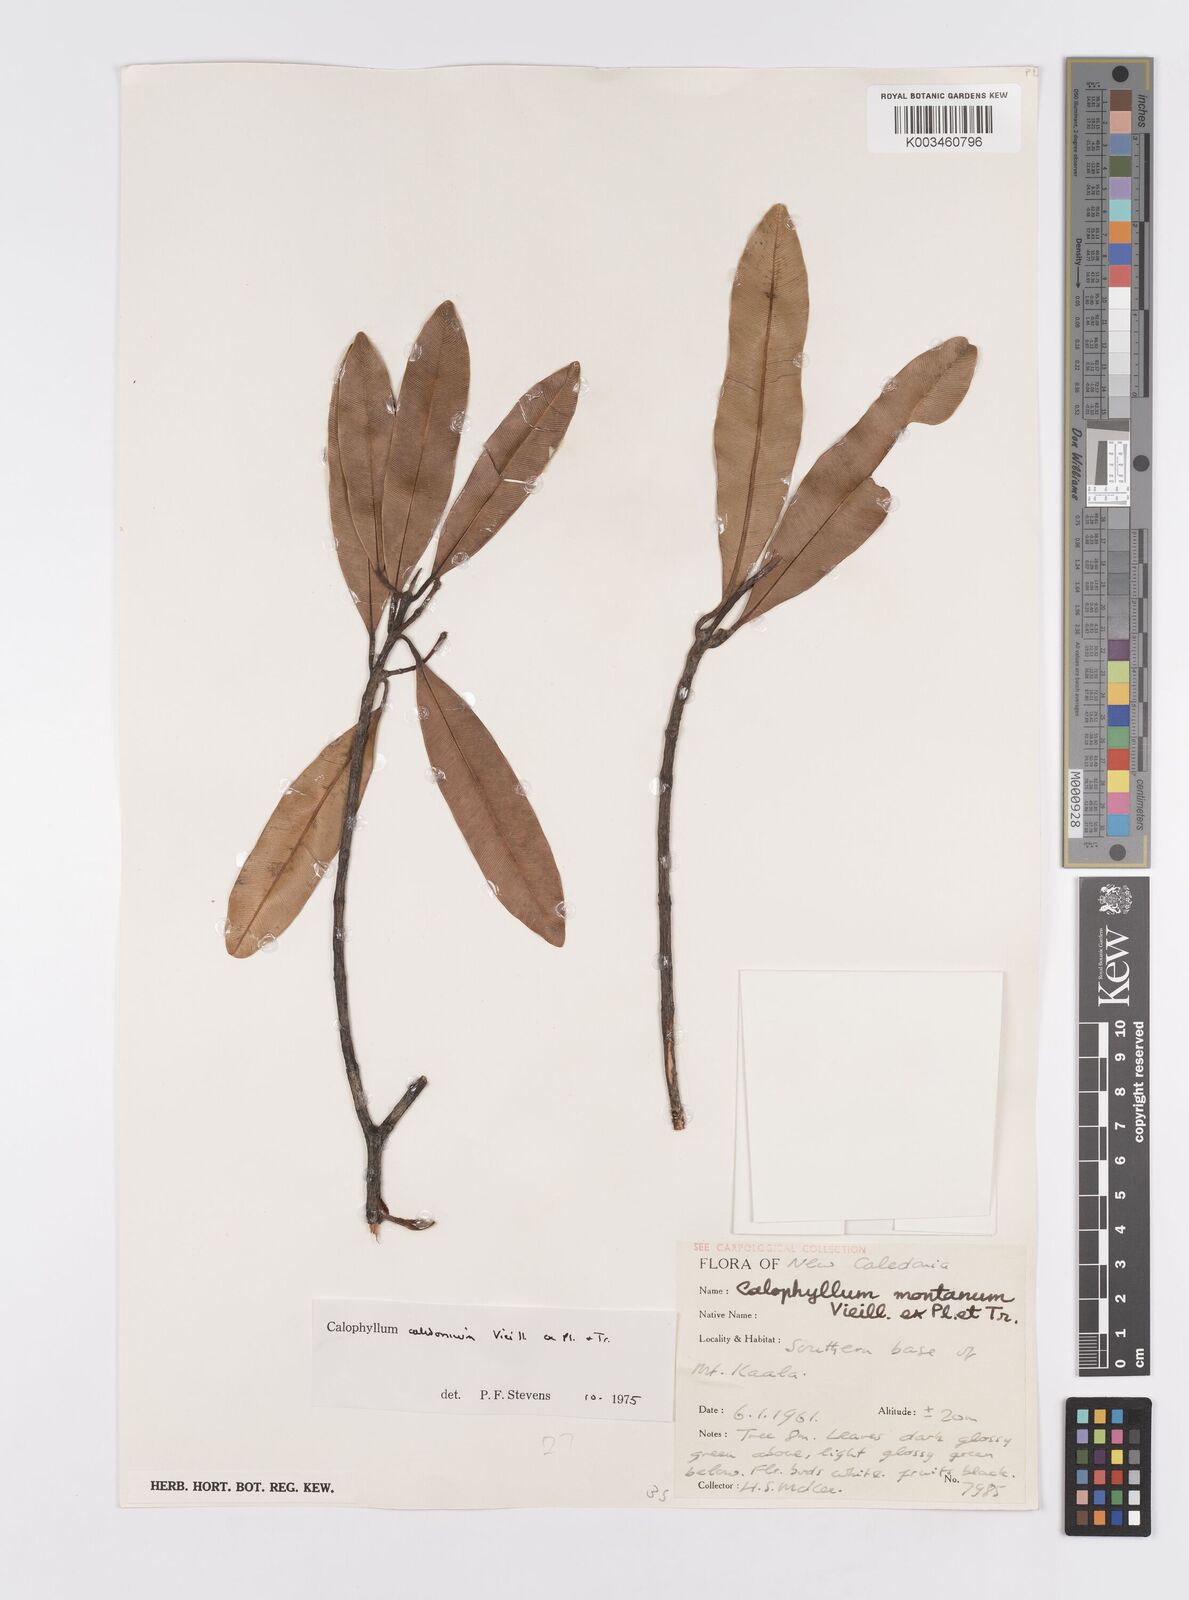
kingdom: Plantae
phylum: Tracheophyta
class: Magnoliopsida
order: Malpighiales
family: Calophyllaceae
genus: Calophyllum
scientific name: Calophyllum caledonicum
